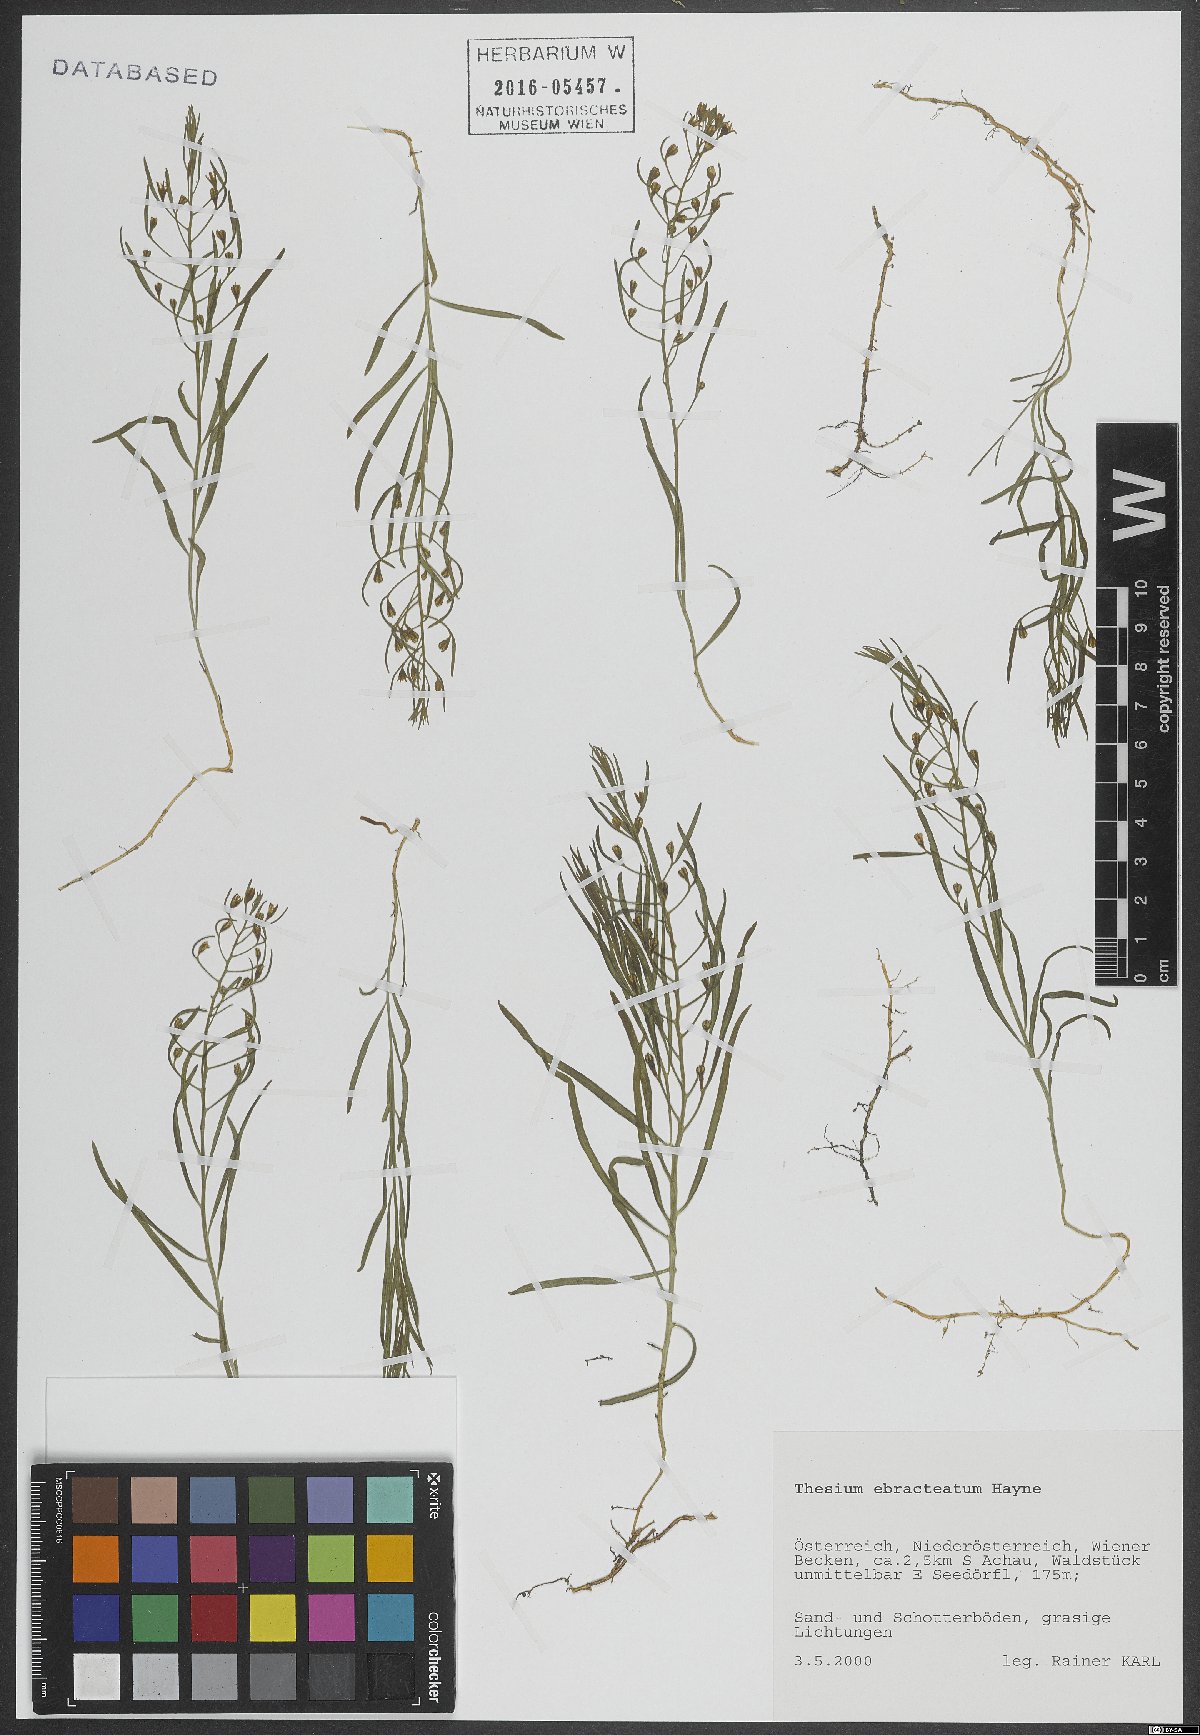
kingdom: Plantae
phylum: Tracheophyta
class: Magnoliopsida
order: Santalales
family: Thesiaceae
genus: Thesium
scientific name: Thesium ebracteatum
